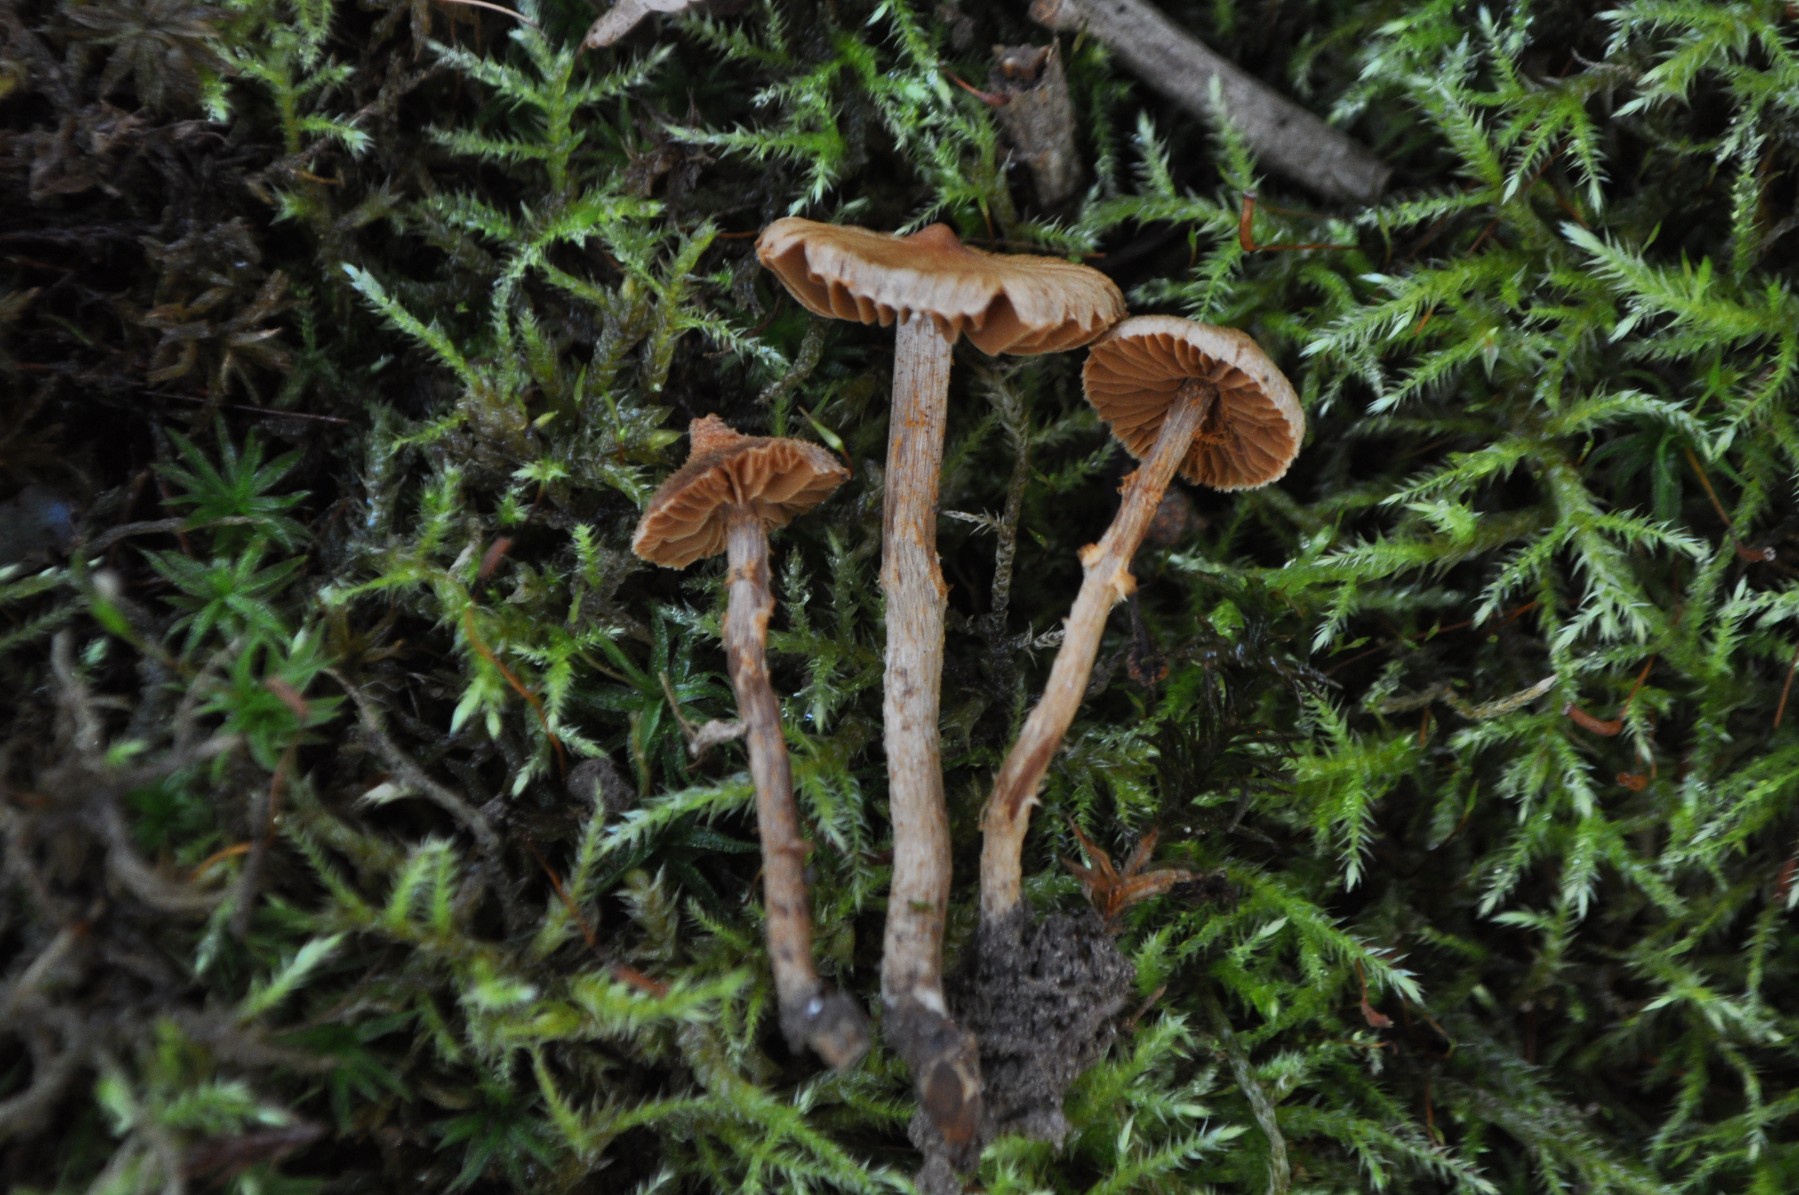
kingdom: Fungi
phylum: Basidiomycota
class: Agaricomycetes
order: Agaricales
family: Cortinariaceae
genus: Cortinarius
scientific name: Cortinarius quercoconicus
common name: agernskål-slørhat
